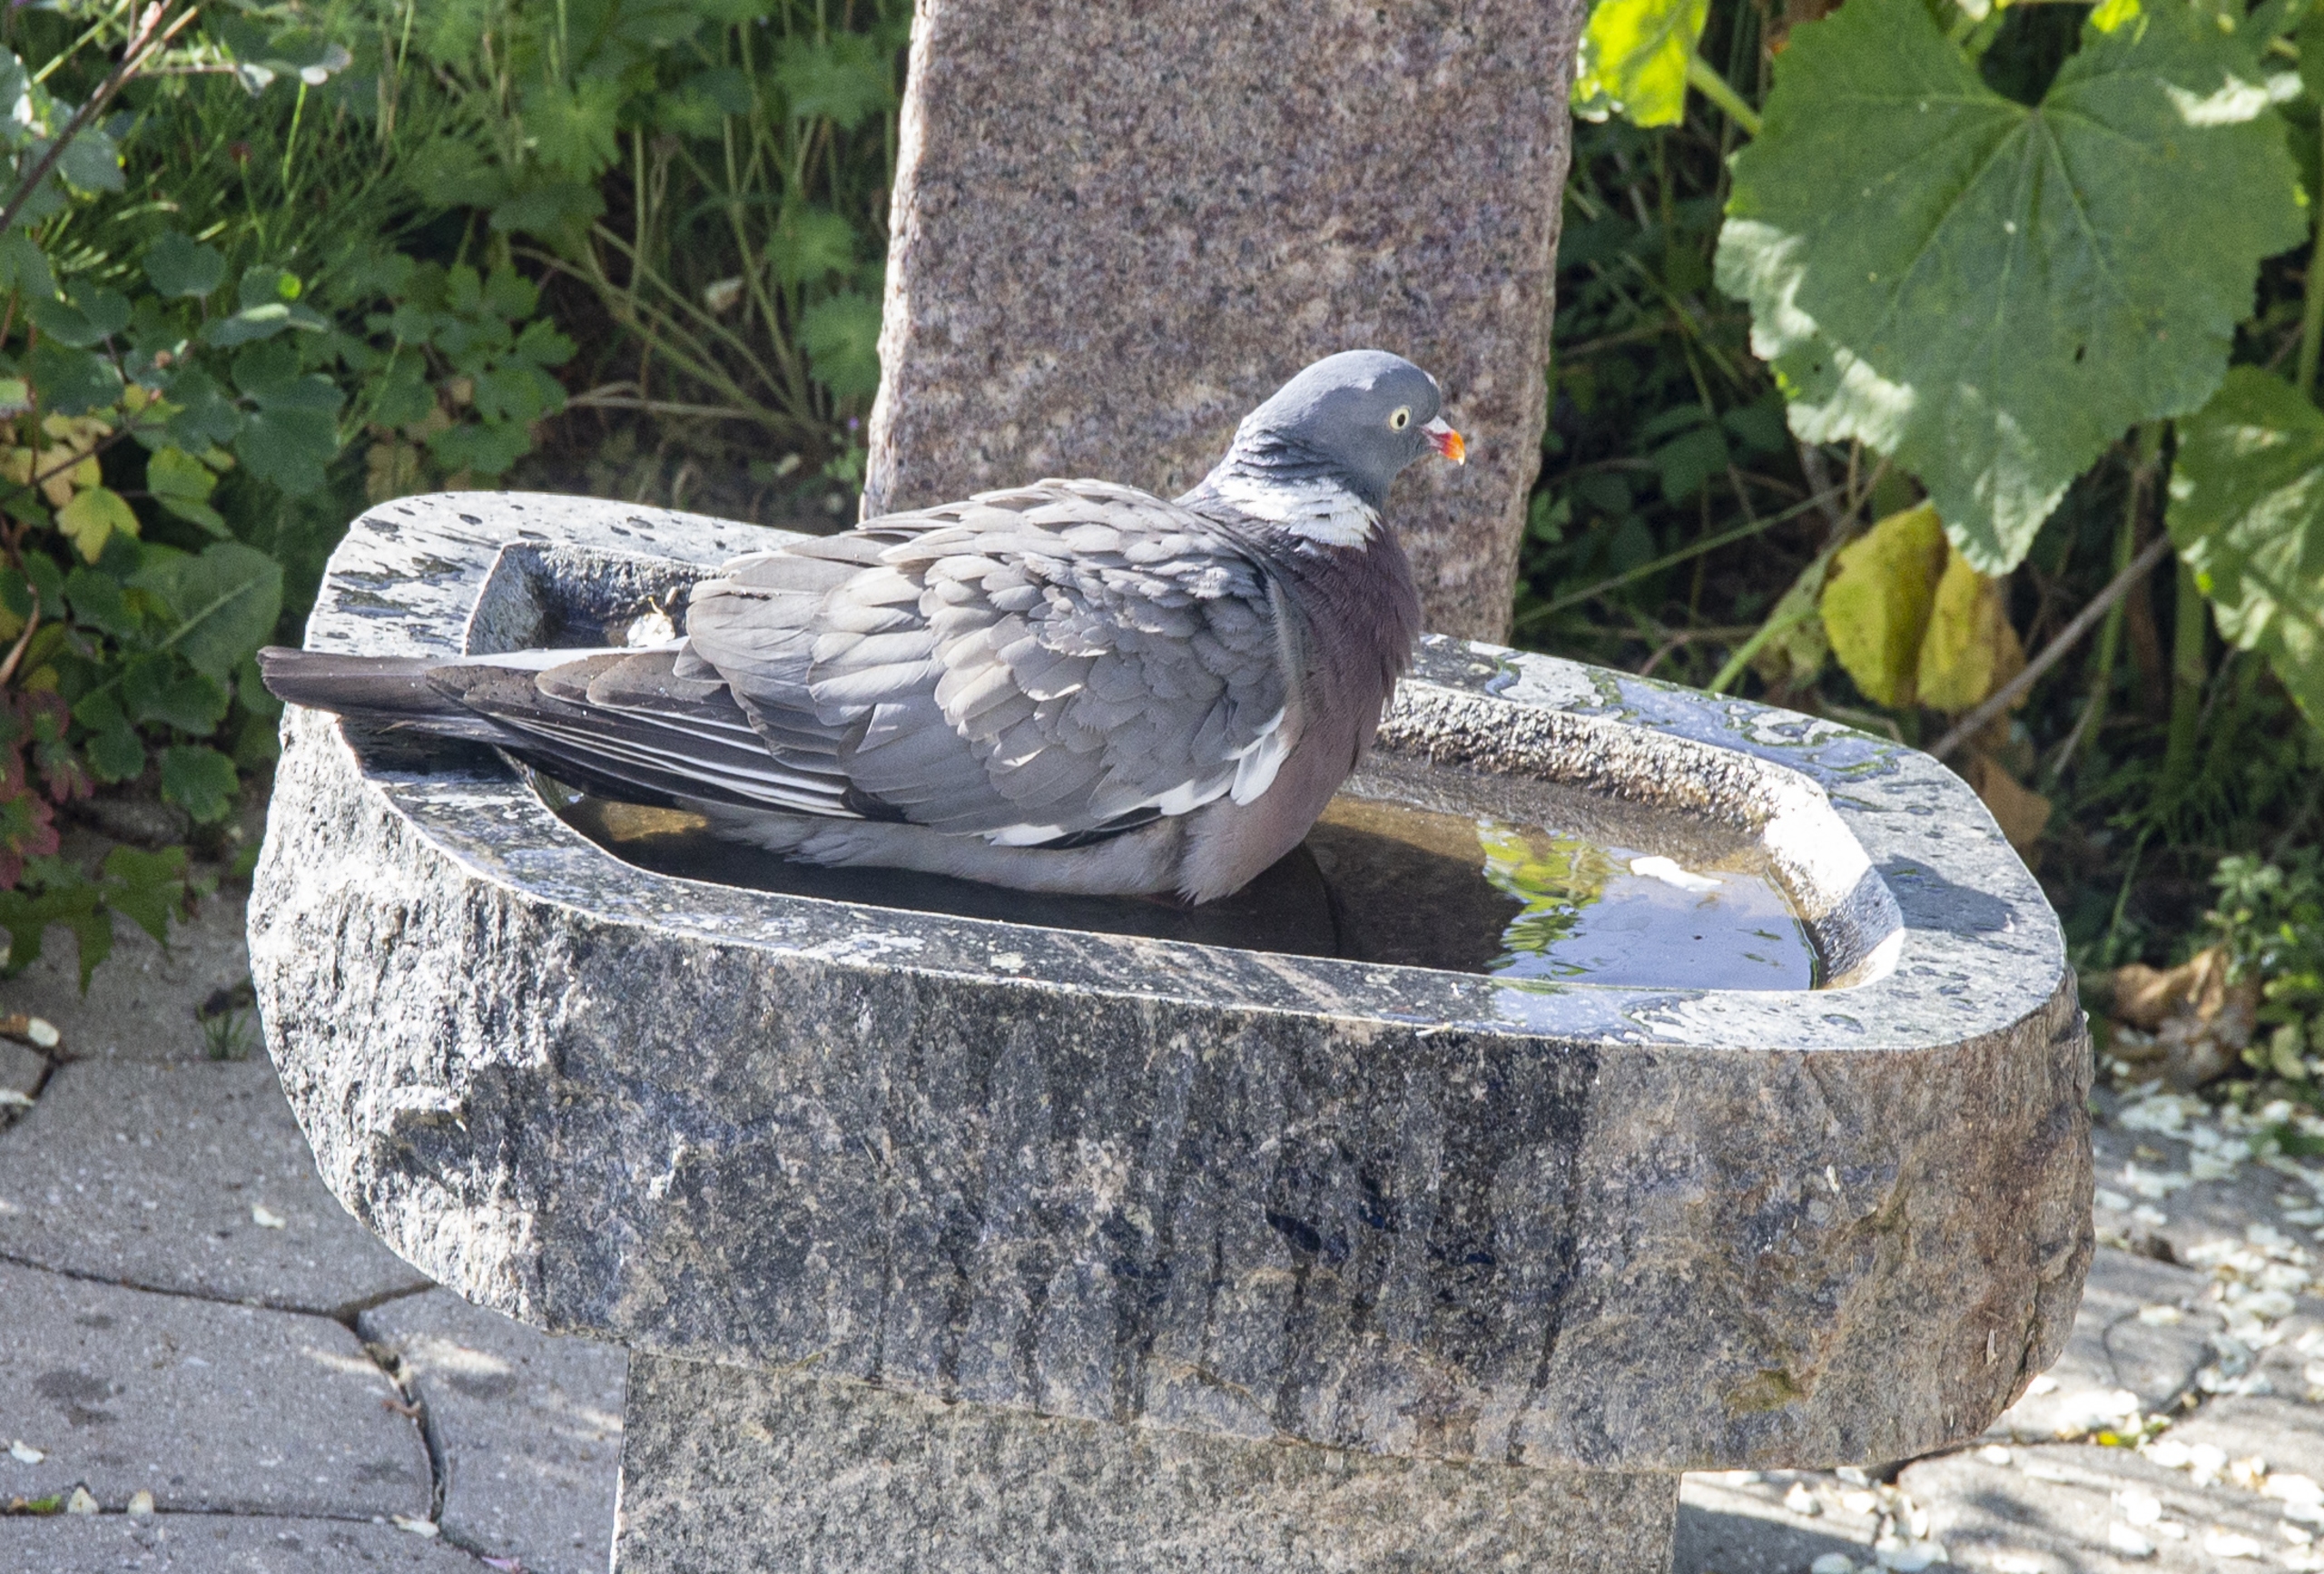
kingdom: Animalia
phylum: Chordata
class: Aves
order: Columbiformes
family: Columbidae
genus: Columba
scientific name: Columba palumbus
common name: Ringdue
